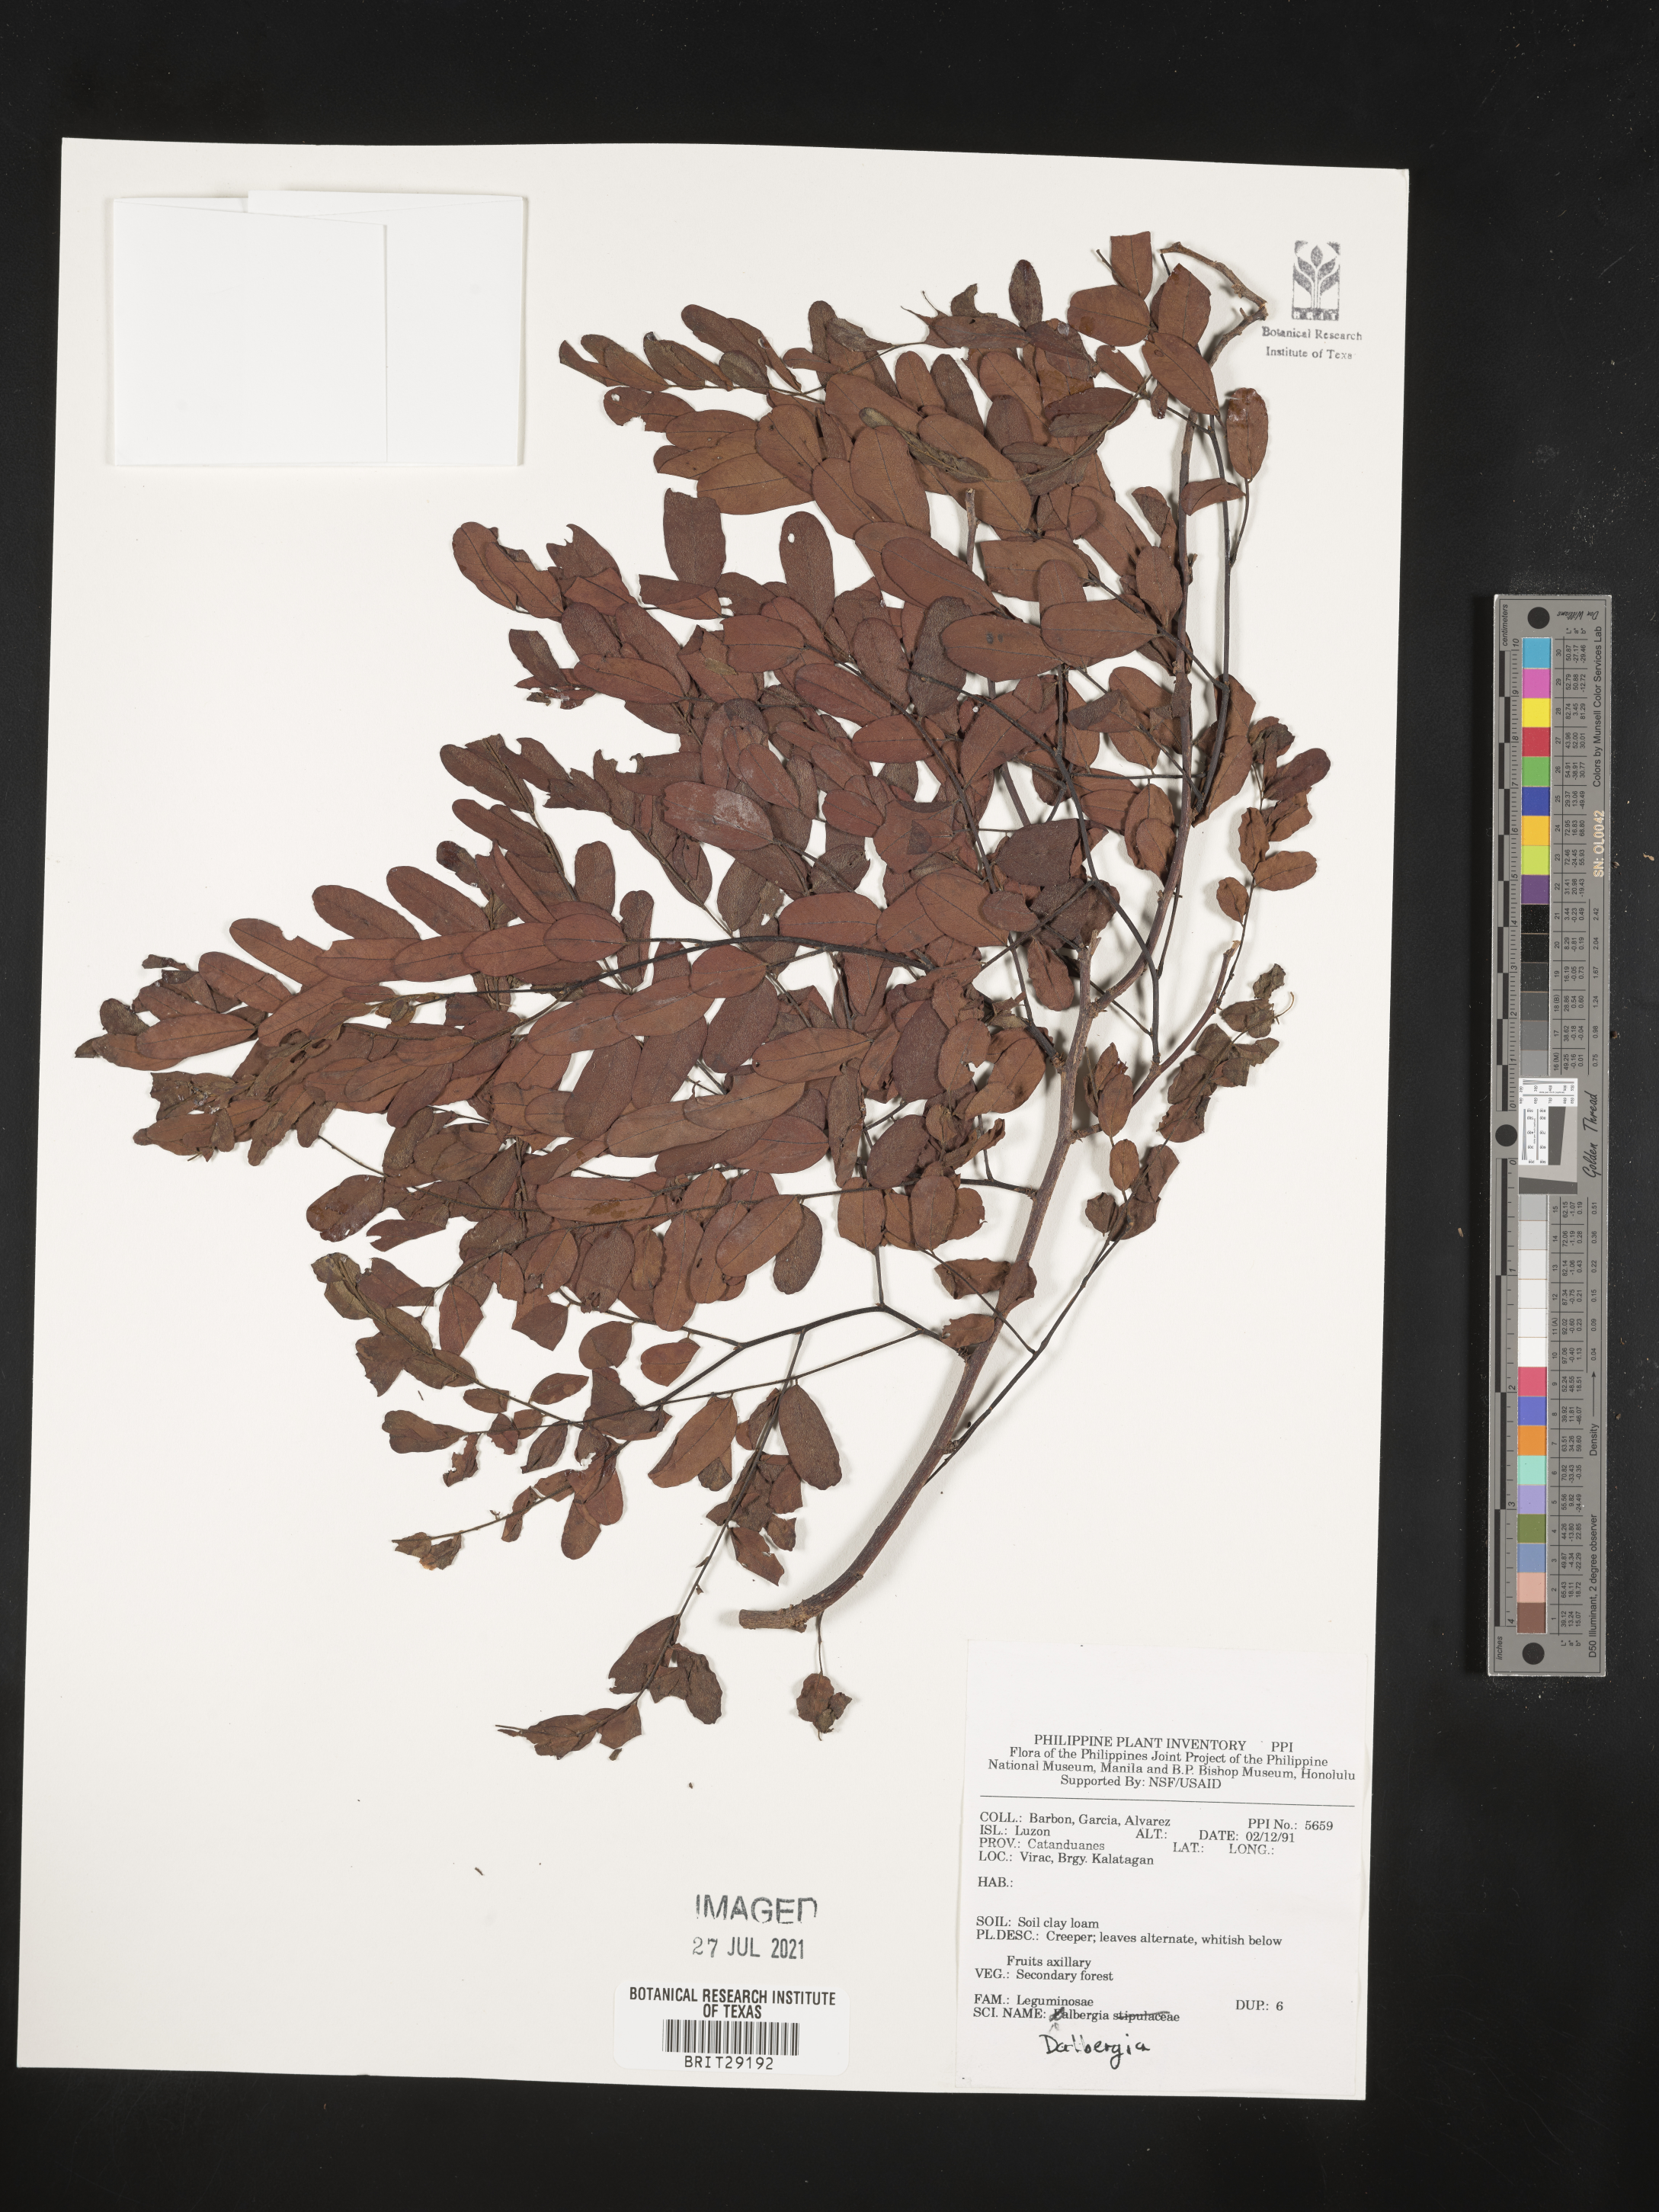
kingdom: Plantae
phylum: Tracheophyta
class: Magnoliopsida
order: Fabales
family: Fabaceae
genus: Dalbergia
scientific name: Dalbergia
